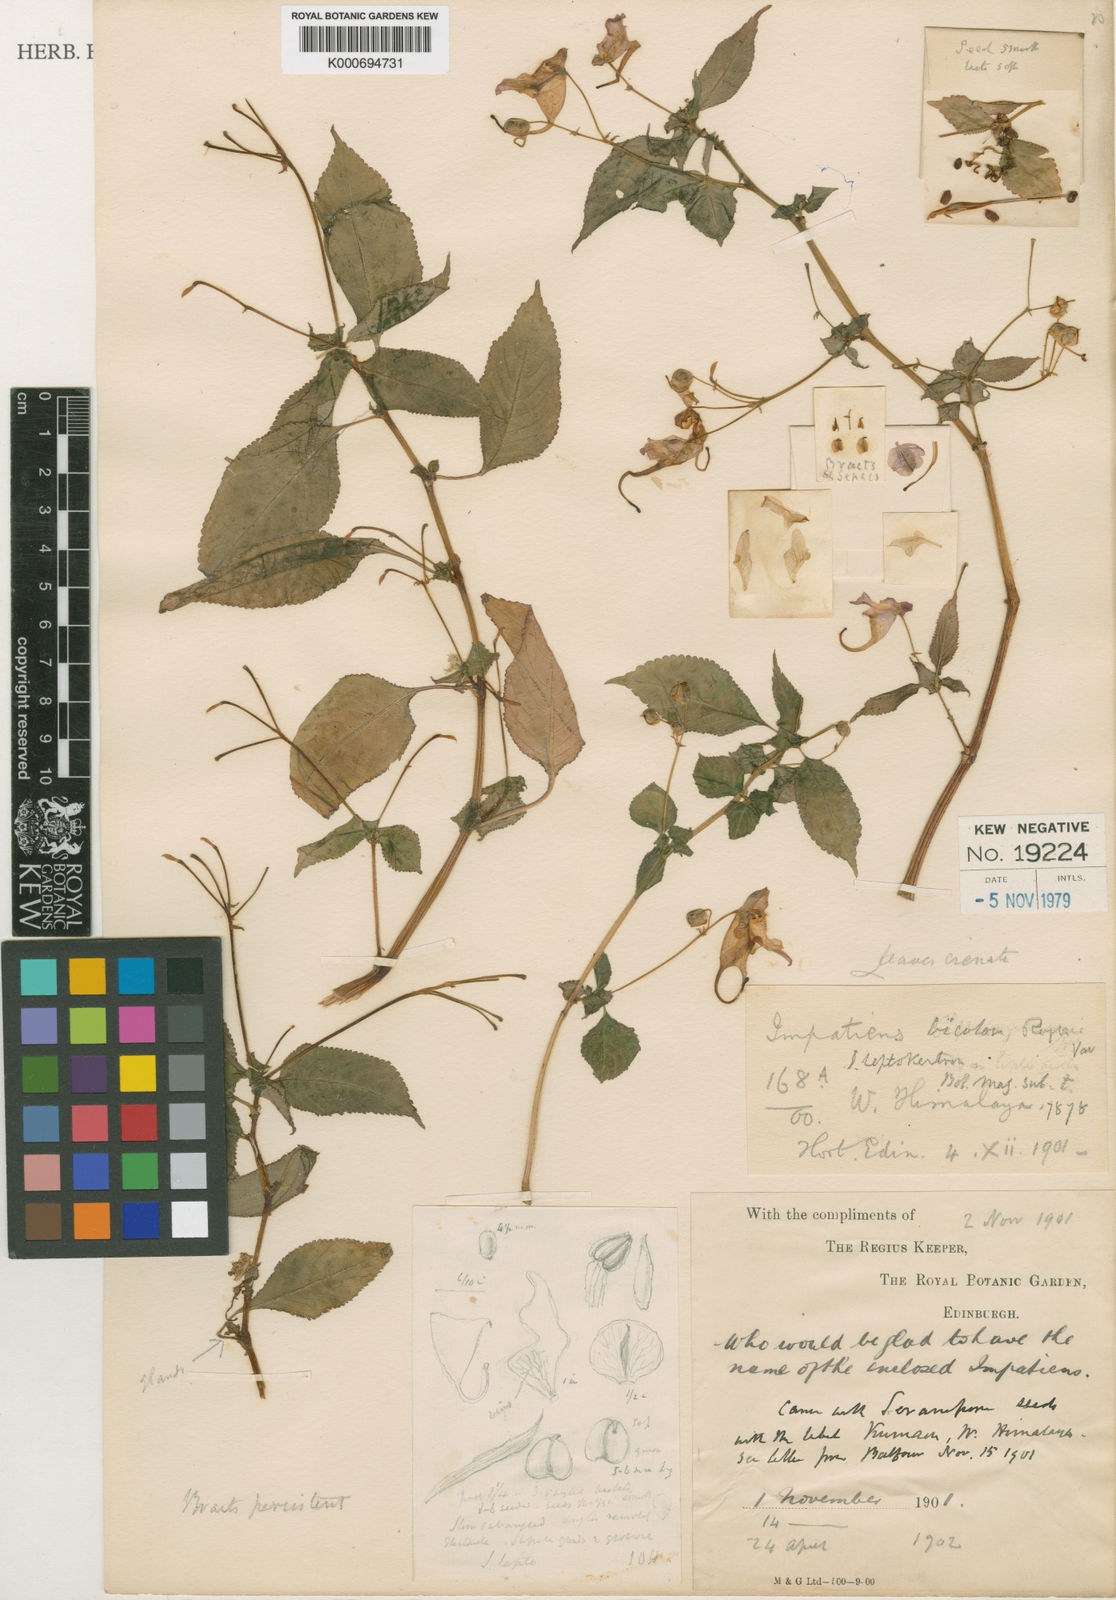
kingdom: Plantae
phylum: Tracheophyta
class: Magnoliopsida
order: Ericales
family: Balsaminaceae
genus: Impatiens
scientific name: Impatiens bicolor
